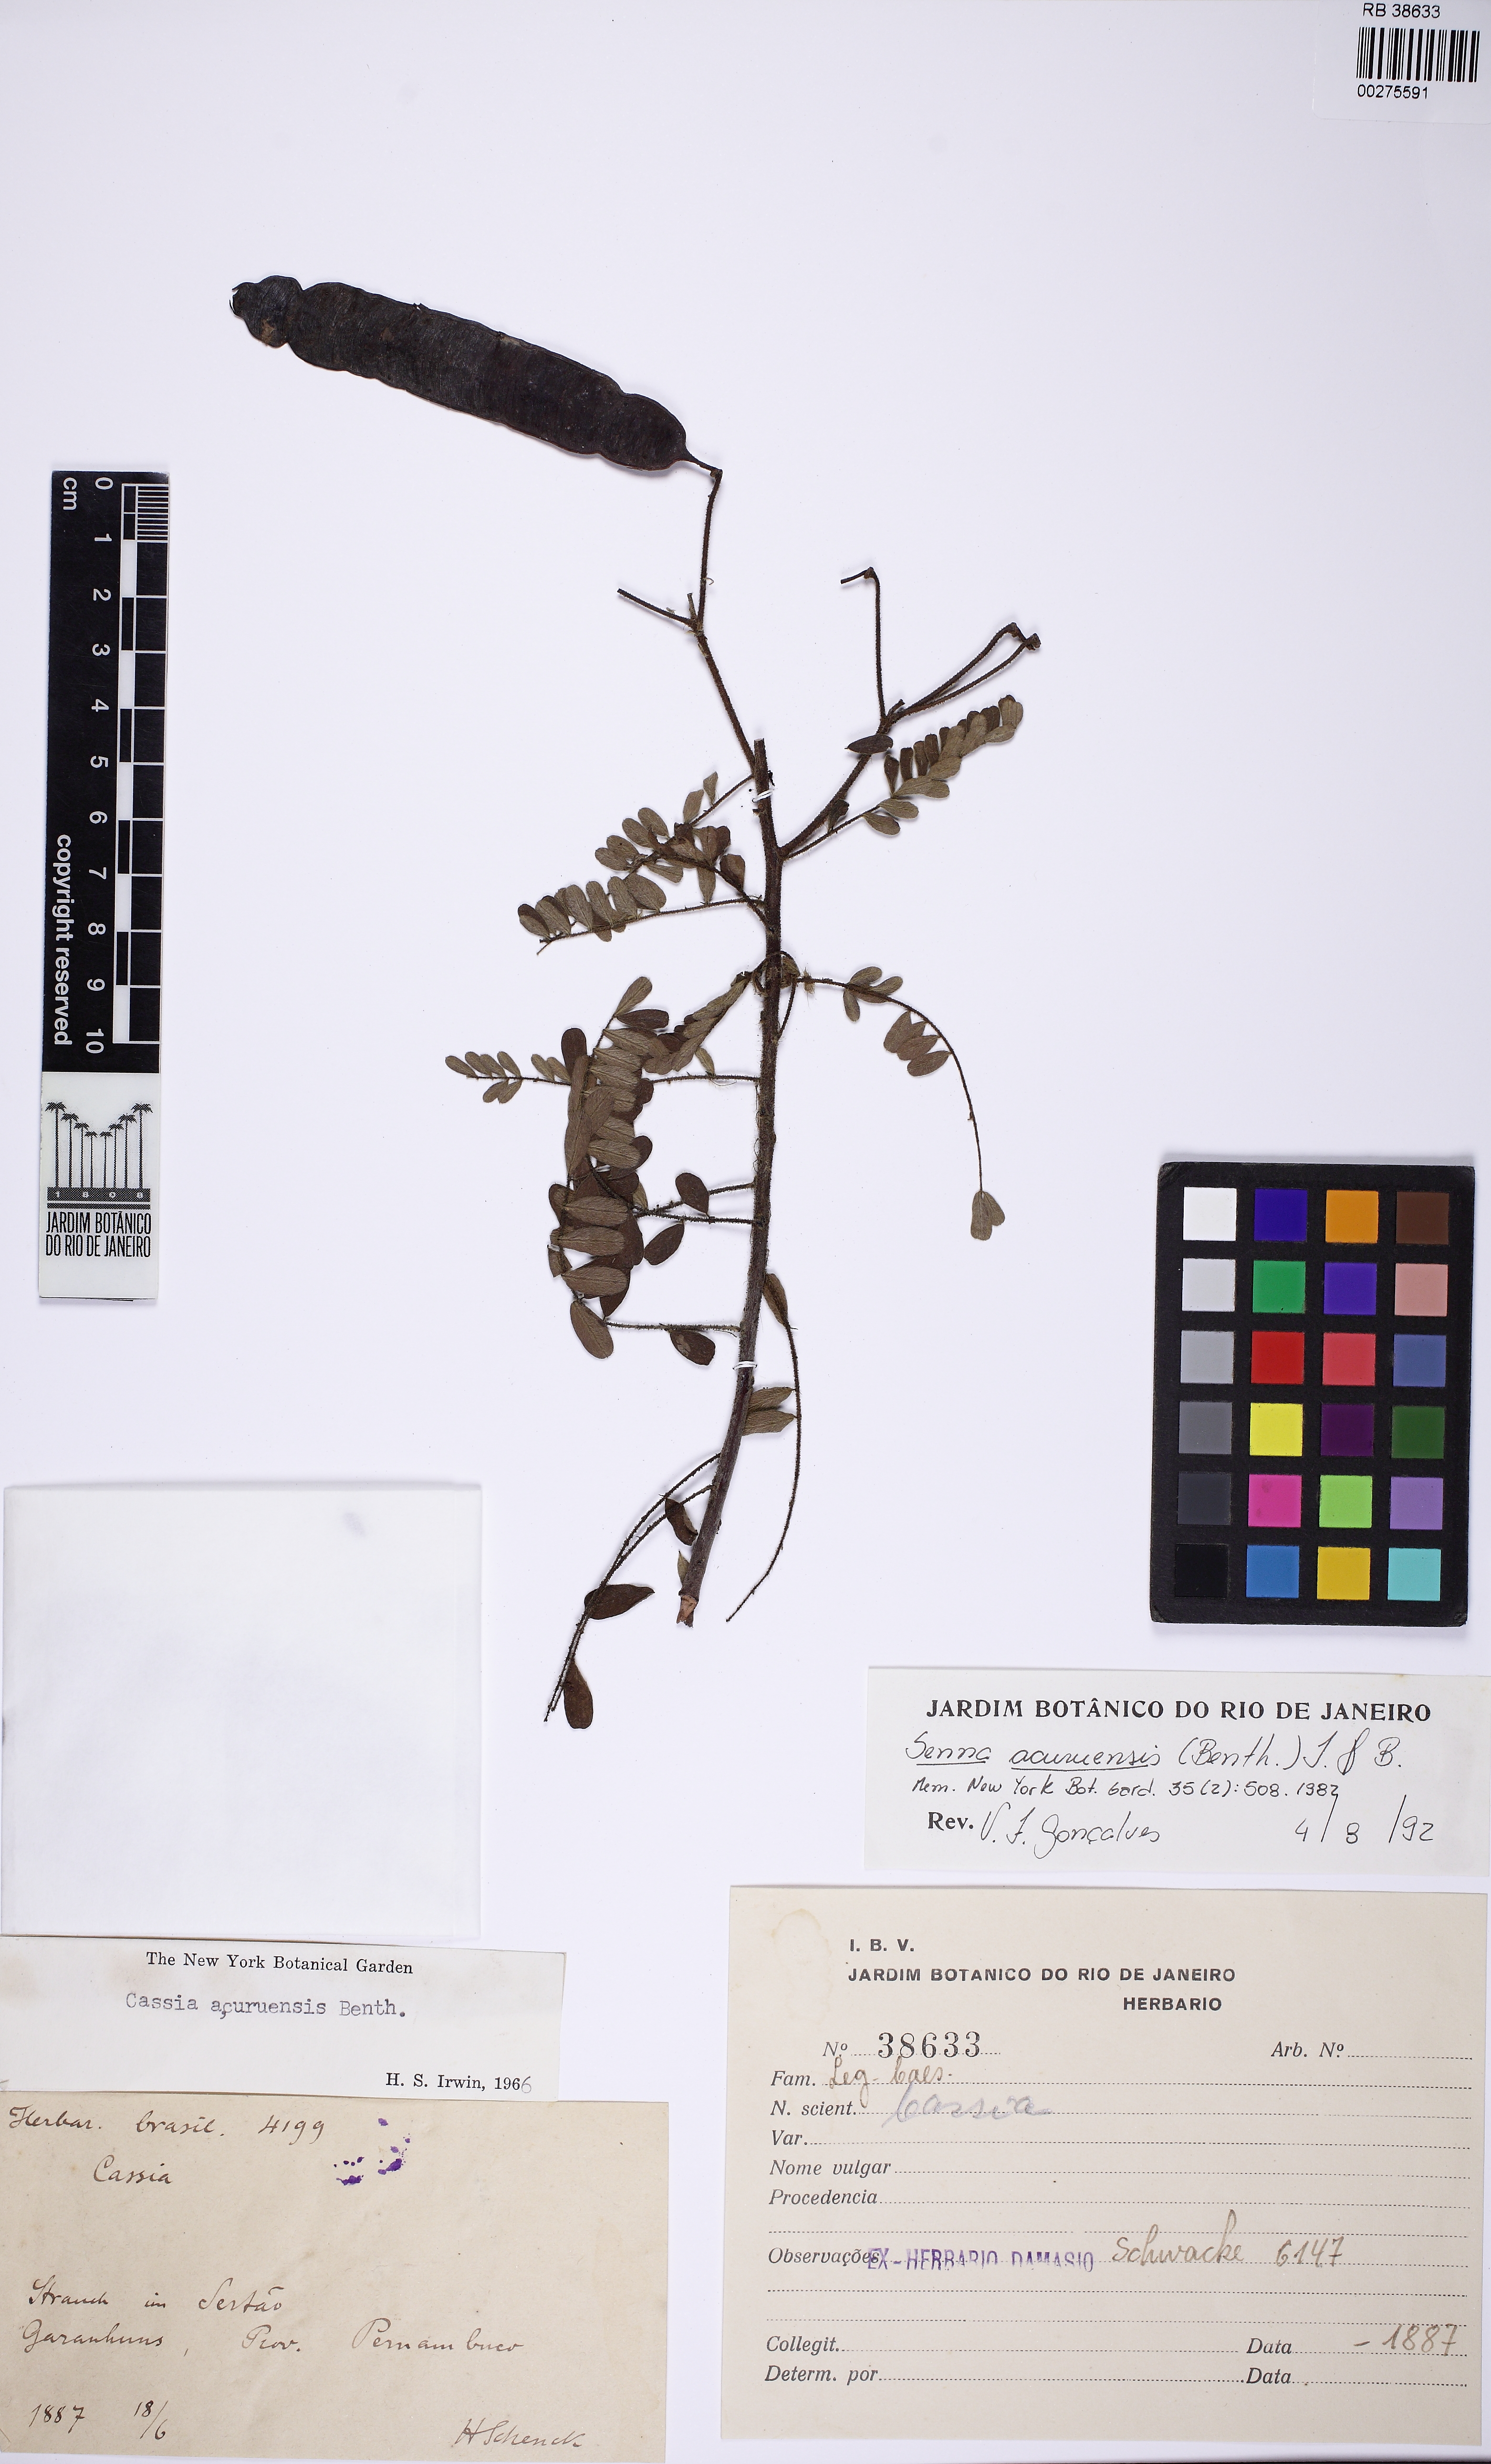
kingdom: Plantae
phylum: Tracheophyta
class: Magnoliopsida
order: Fabales
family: Fabaceae
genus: Senna
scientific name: Senna acuruensis
